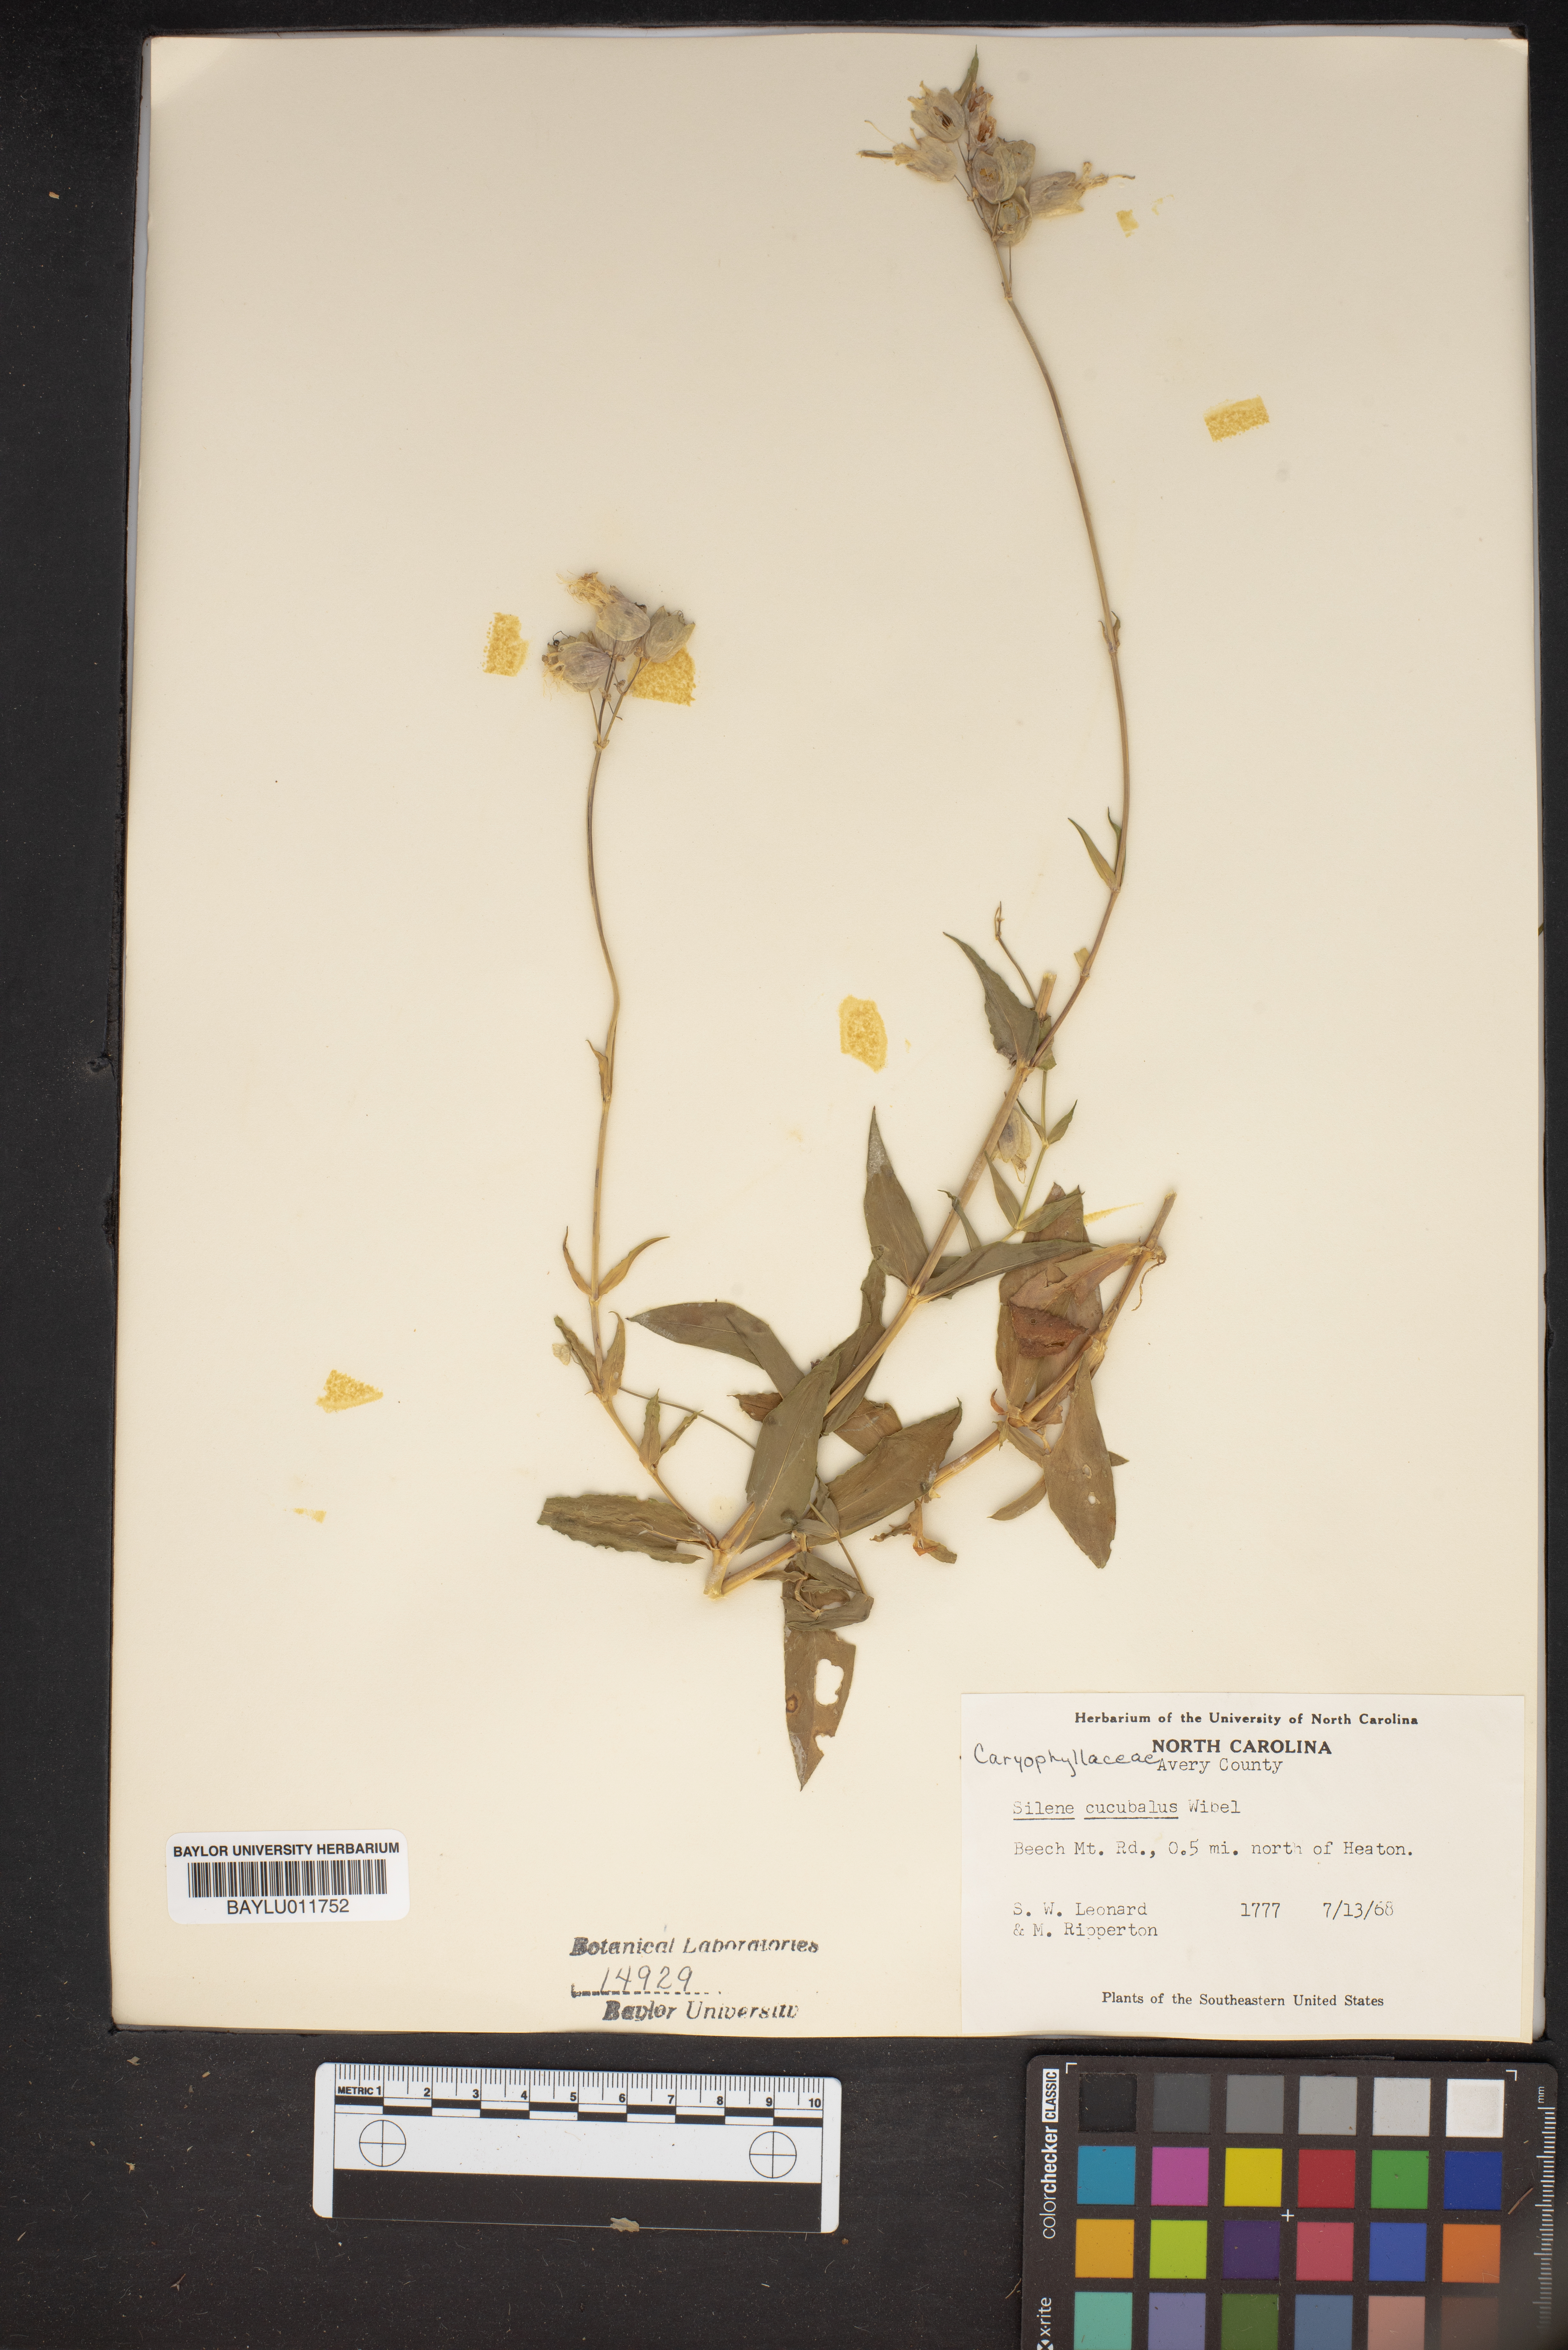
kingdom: Plantae
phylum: Tracheophyta
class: Magnoliopsida
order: Caryophyllales
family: Caryophyllaceae
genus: Silene
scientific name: Silene vulgaris
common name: Bladder campion
